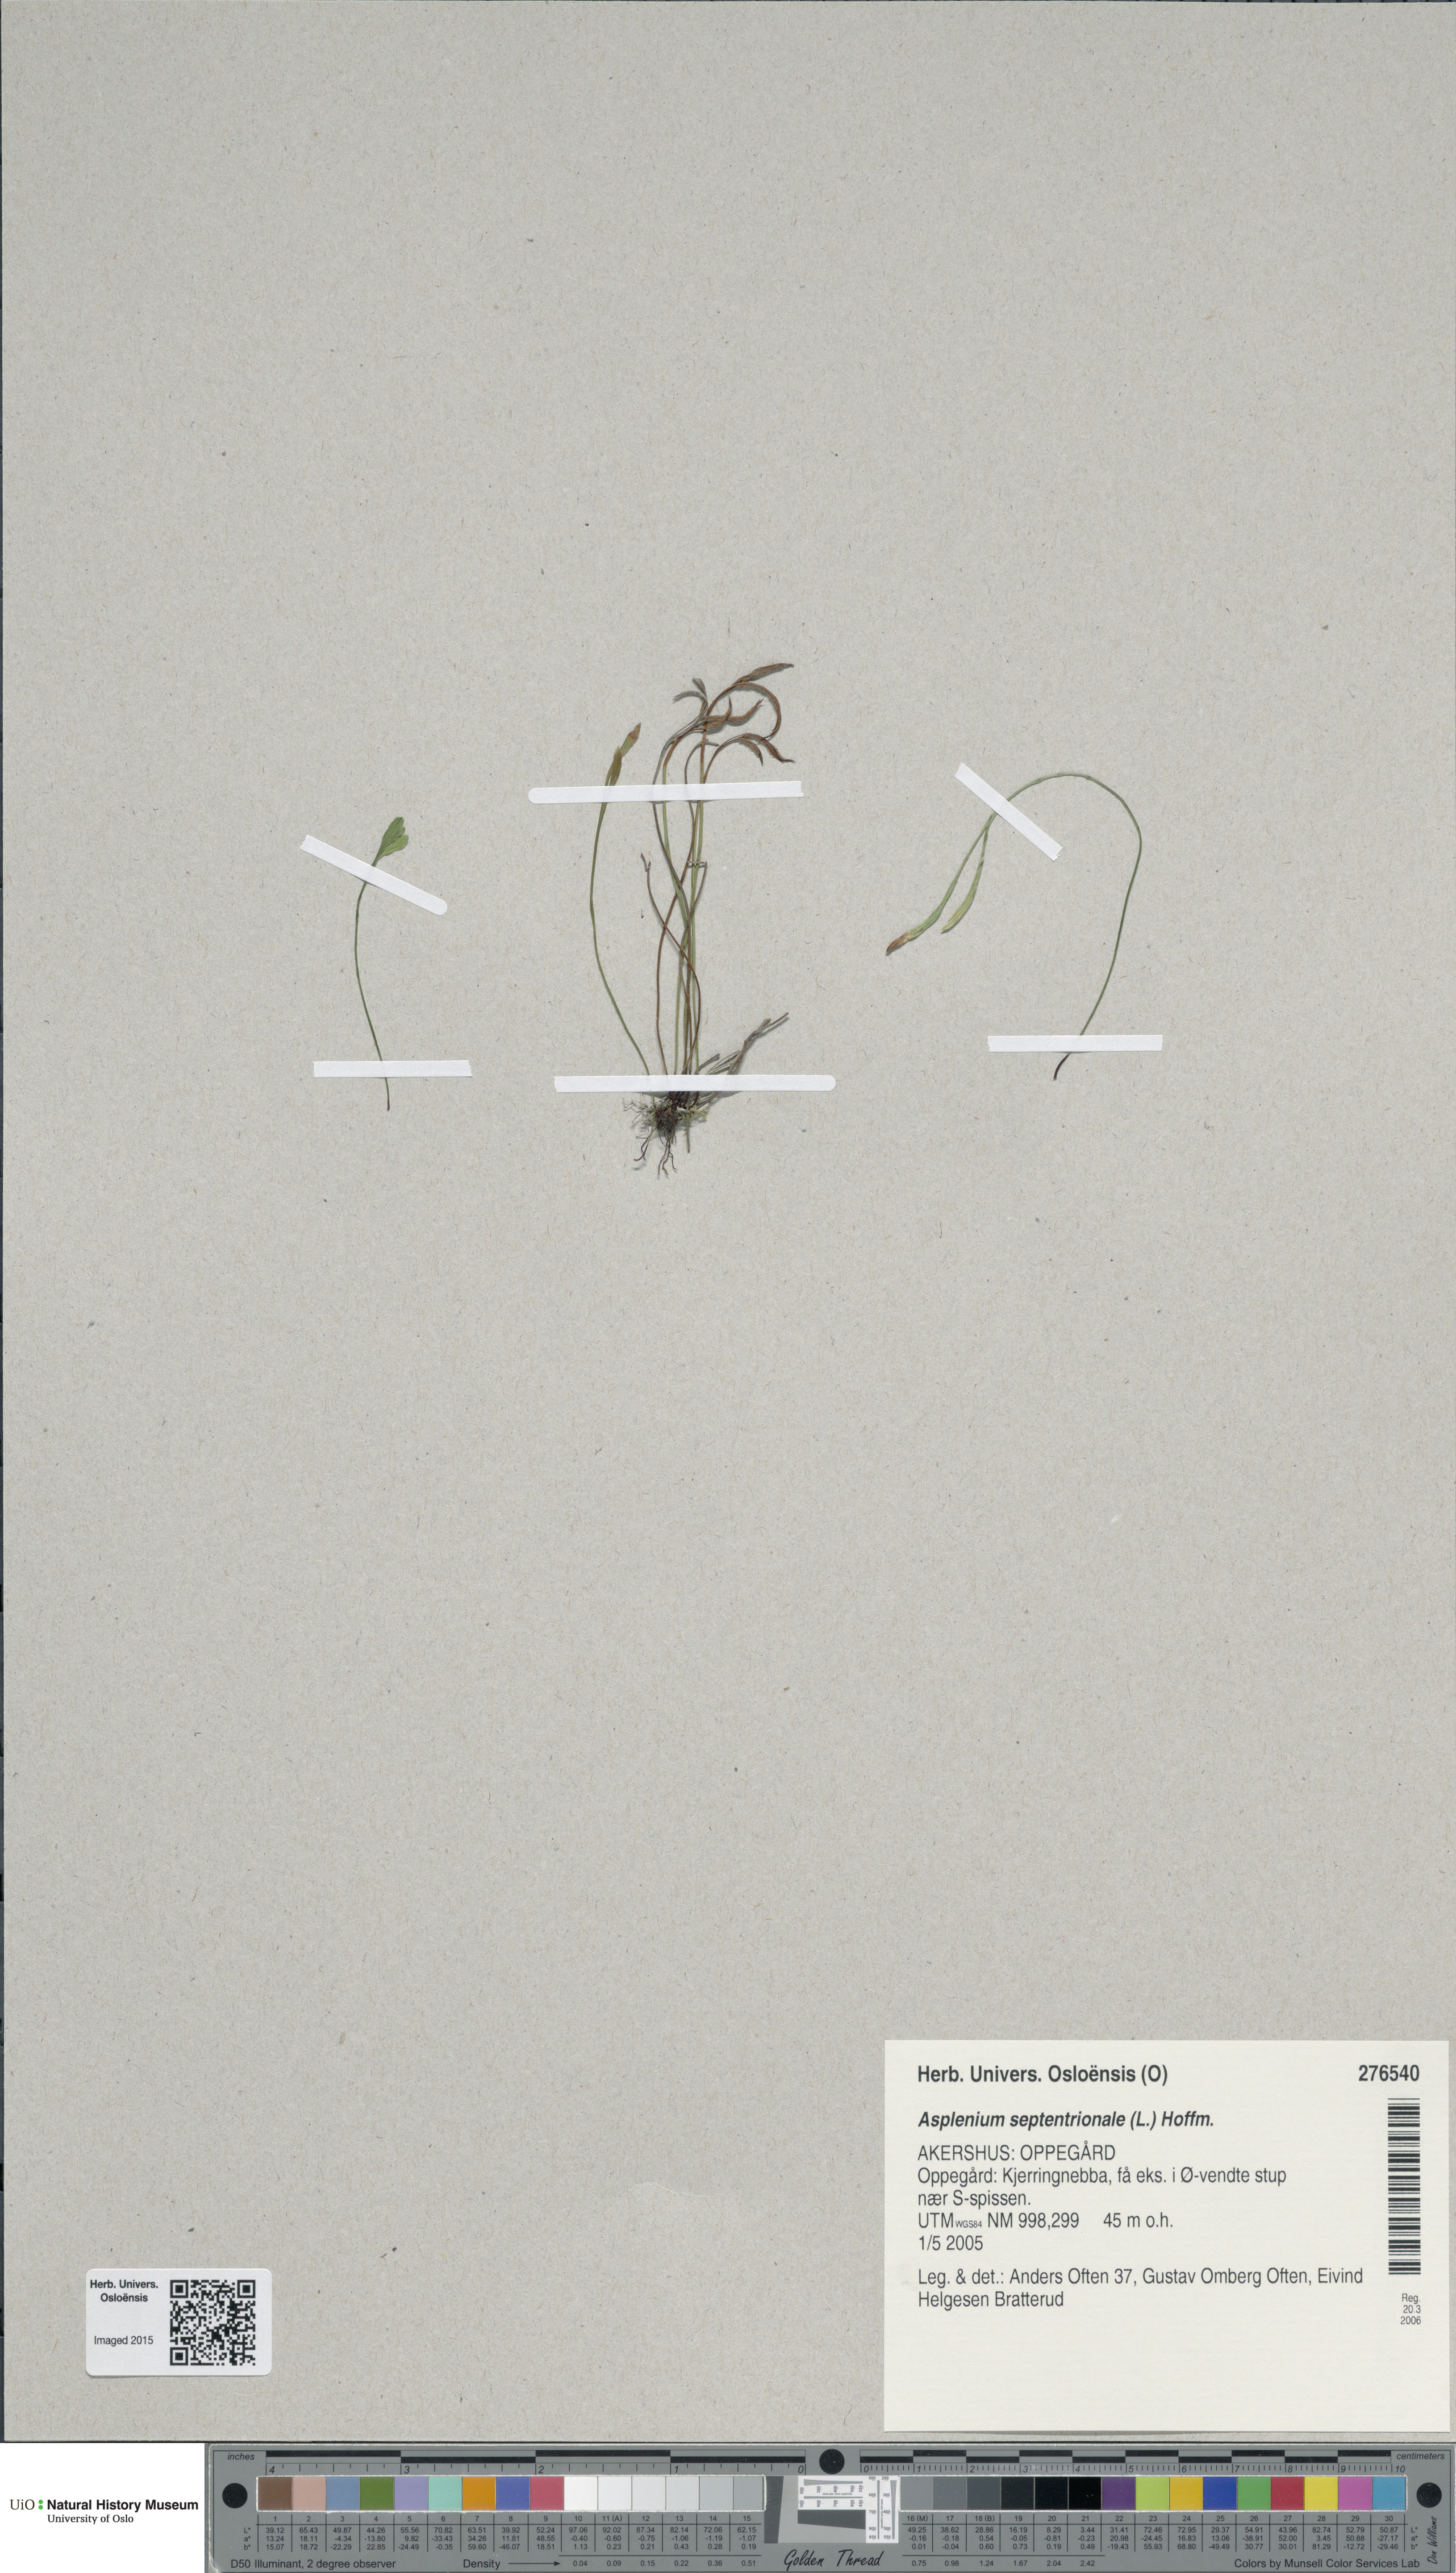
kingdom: Plantae
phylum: Tracheophyta
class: Polypodiopsida
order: Polypodiales
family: Aspleniaceae
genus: Asplenium
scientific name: Asplenium septentrionale
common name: Forked spleenwort
